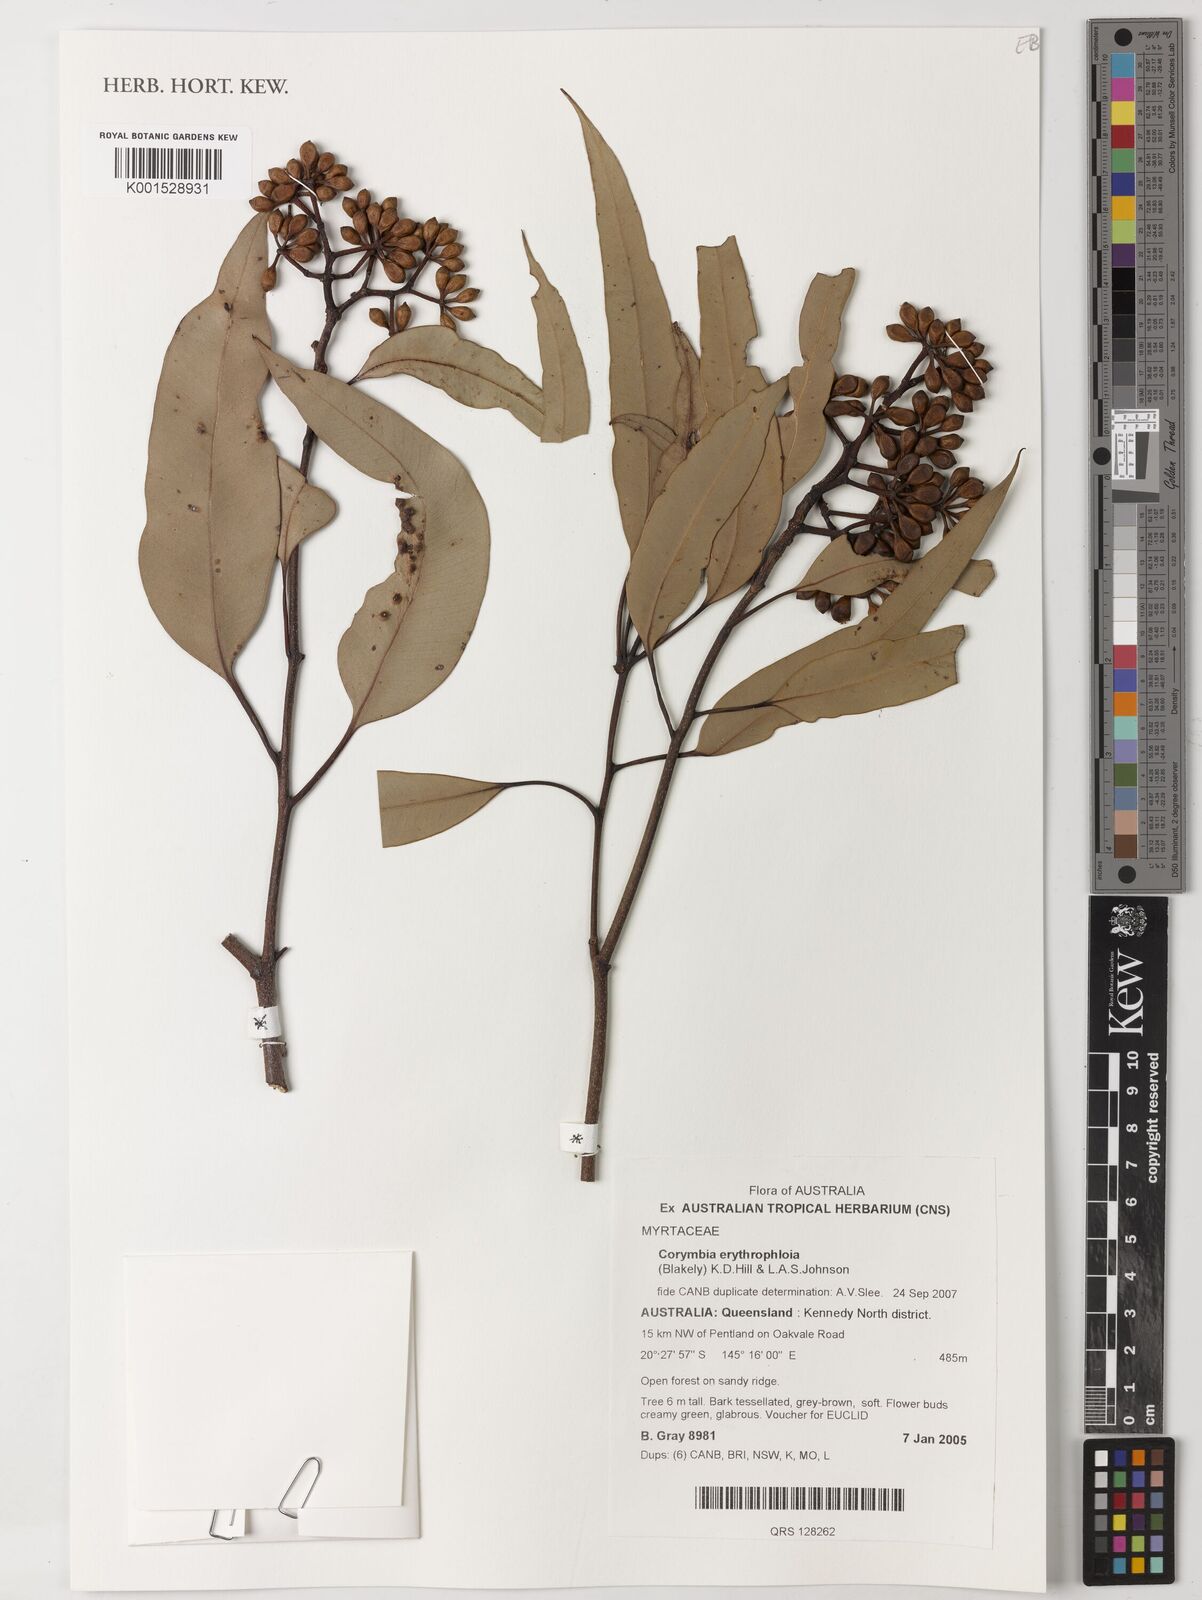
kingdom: Plantae
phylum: Tracheophyta
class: Magnoliopsida
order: Myrtales
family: Myrtaceae
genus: Corymbia
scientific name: Corymbia erythrophloia
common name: Red bloodwood
